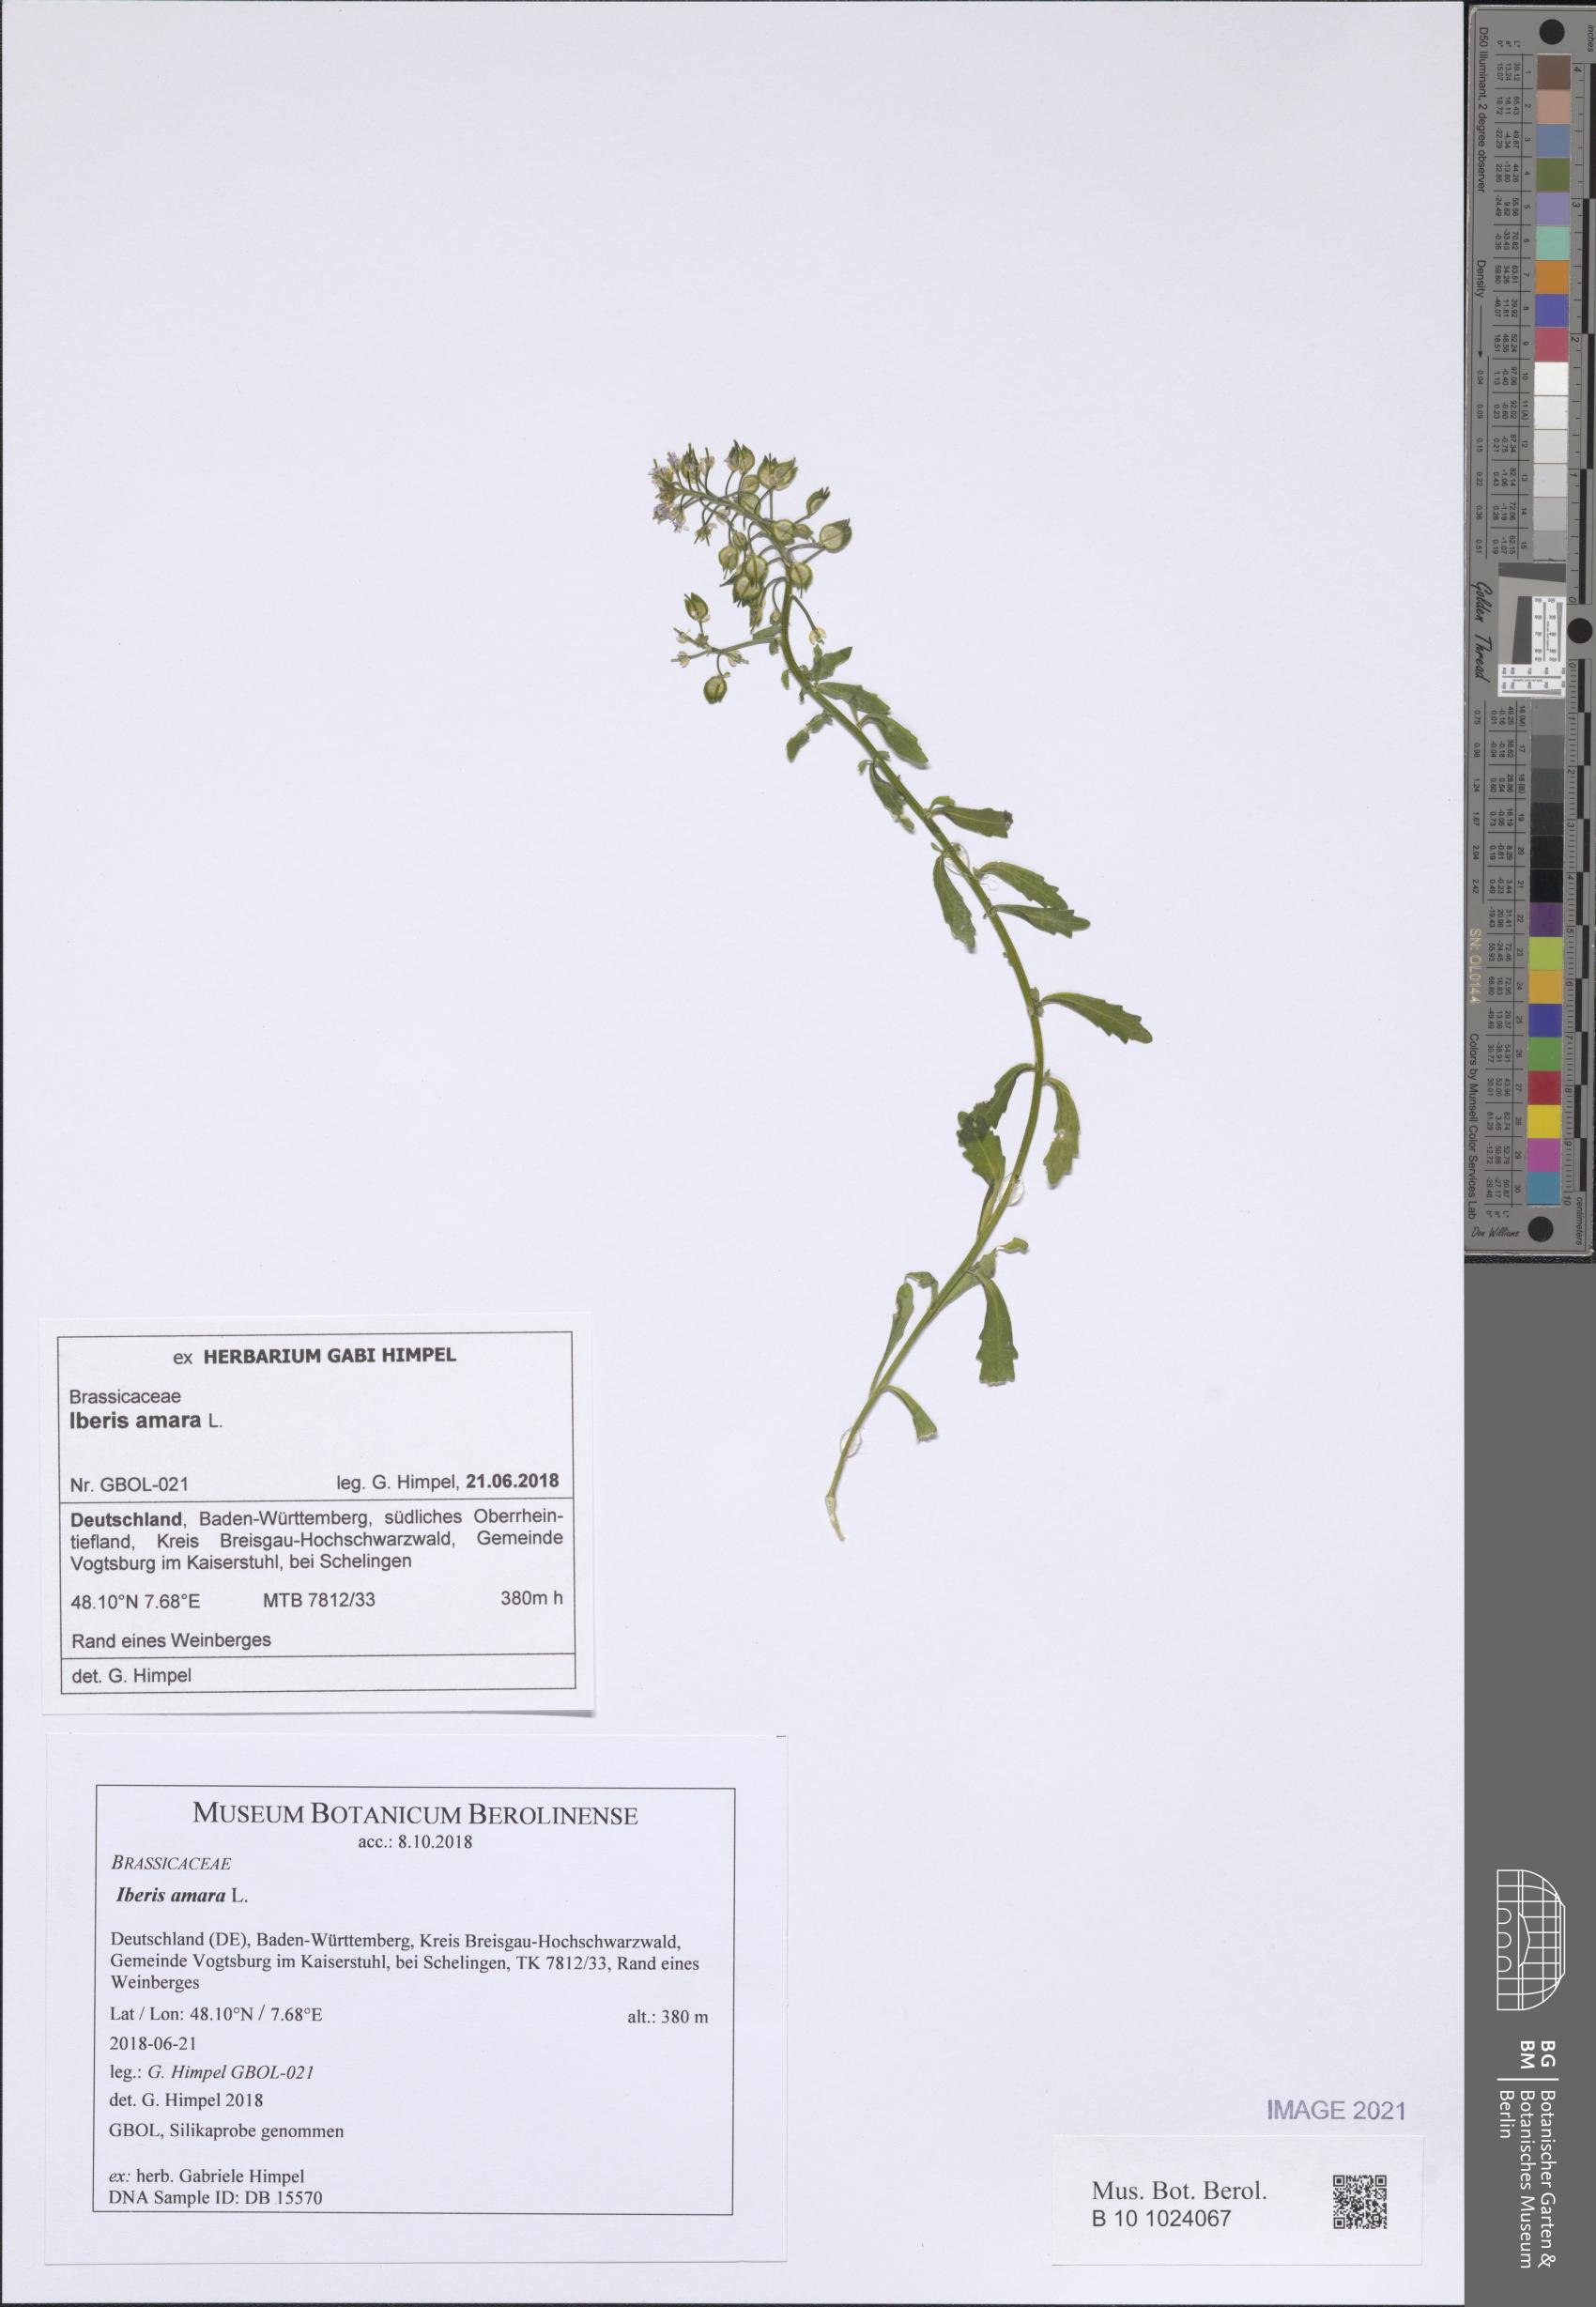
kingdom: Plantae
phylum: Tracheophyta
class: Magnoliopsida
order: Brassicales
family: Brassicaceae
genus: Iberis
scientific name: Iberis amara
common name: Annual candytuft
